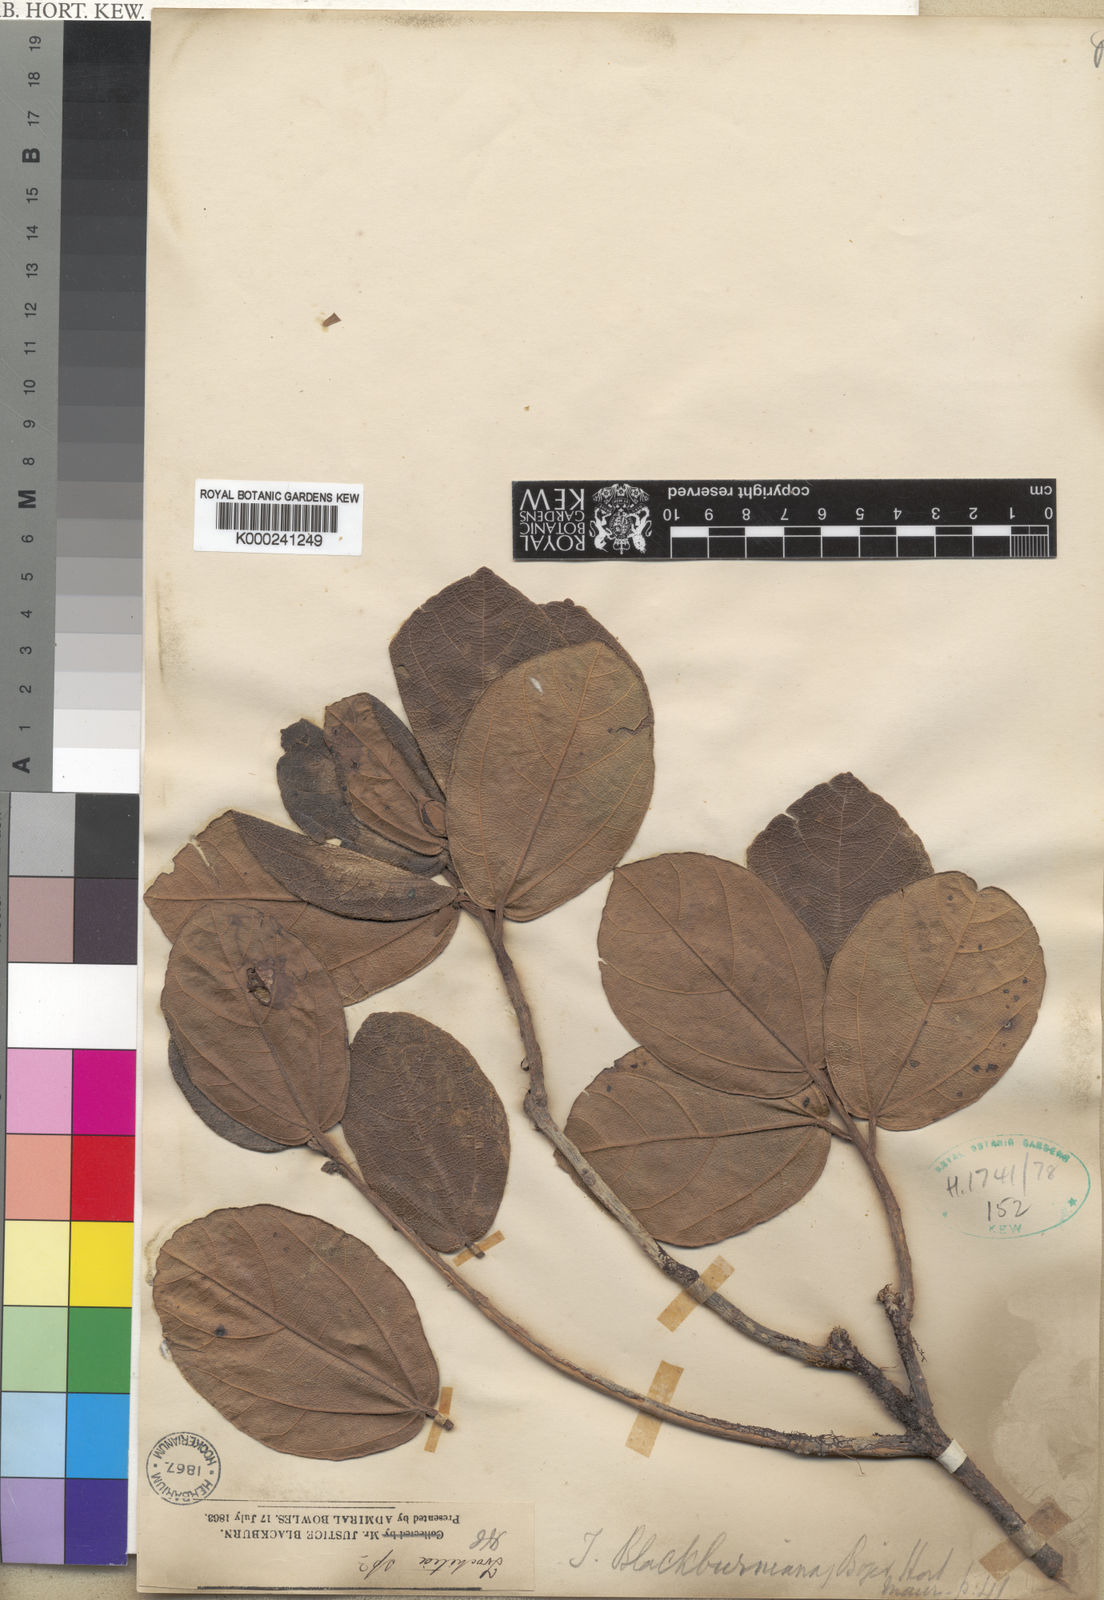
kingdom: Plantae
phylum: Tracheophyta
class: Magnoliopsida
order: Malvales
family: Malvaceae
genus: Ruizia
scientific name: Ruizia
